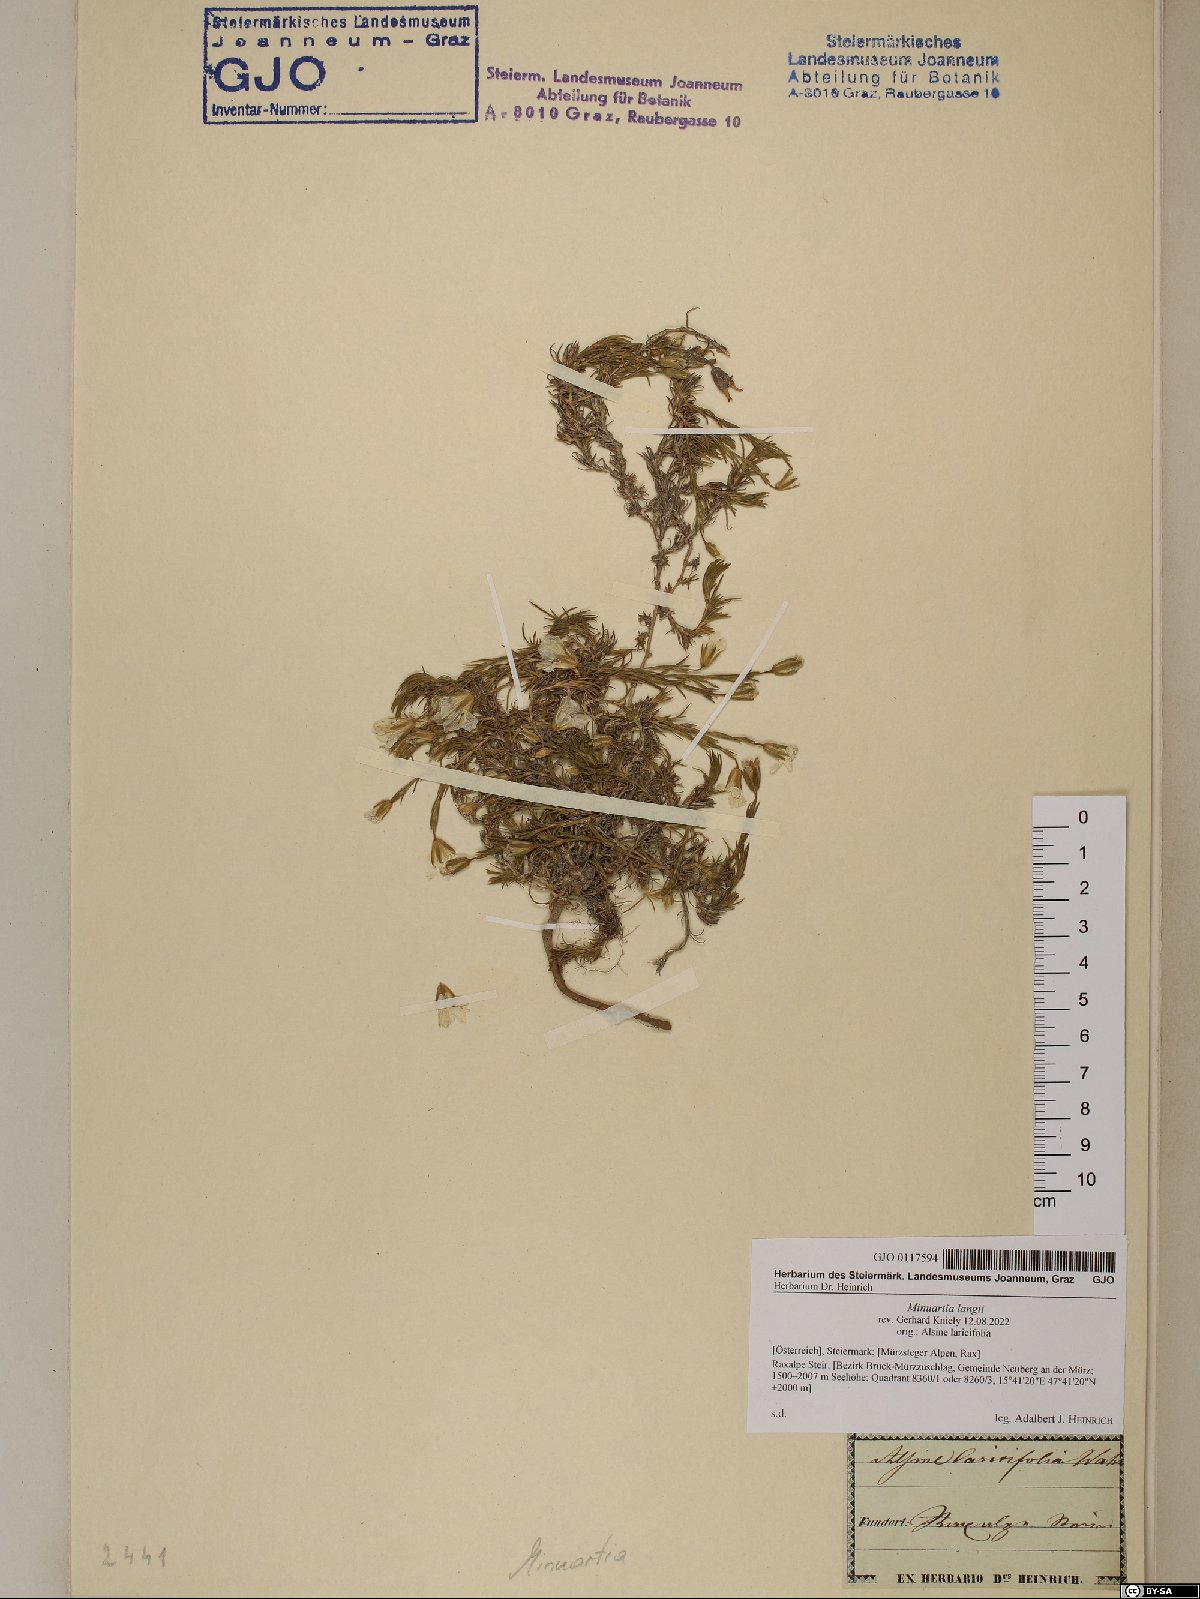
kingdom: Plantae
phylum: Tracheophyta
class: Magnoliopsida
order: Caryophyllales
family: Caryophyllaceae
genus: Cherleria
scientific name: Cherleria langii
